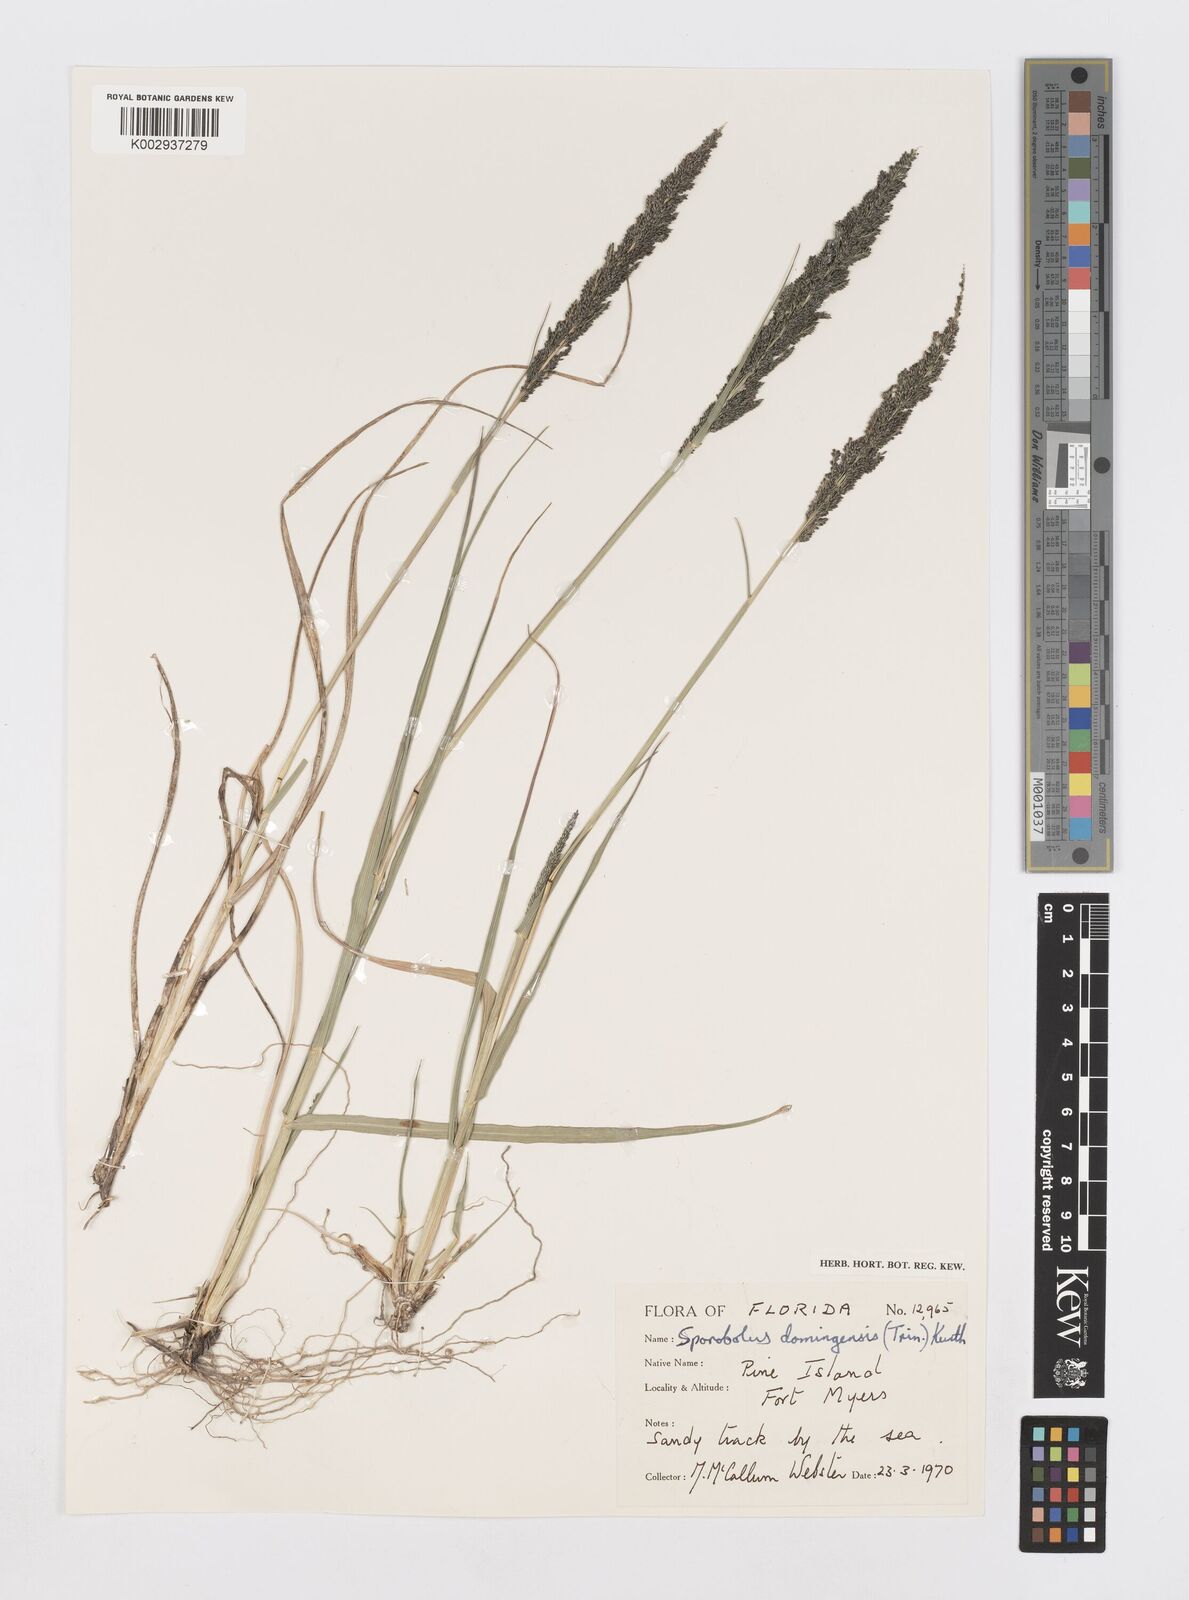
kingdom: Plantae
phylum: Tracheophyta
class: Liliopsida
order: Poales
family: Poaceae
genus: Sporobolus
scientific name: Sporobolus domingensis
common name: Coral dropseed
